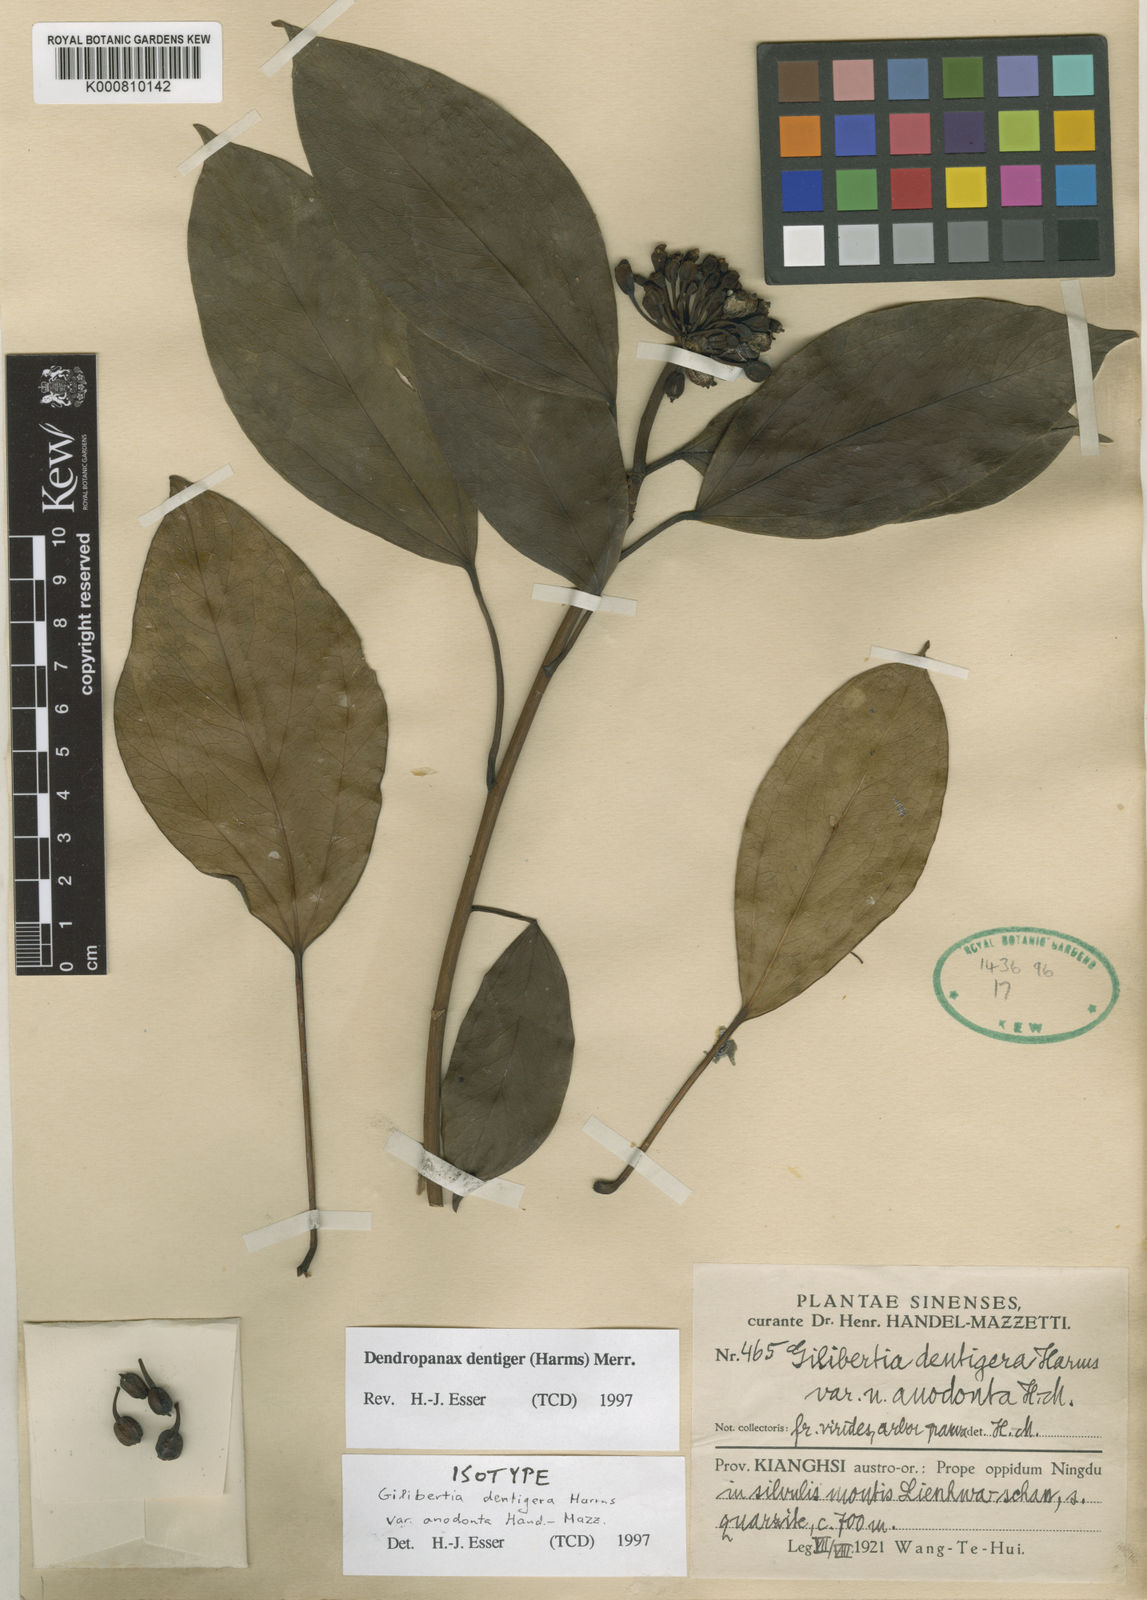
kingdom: Plantae
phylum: Tracheophyta
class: Magnoliopsida
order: Apiales
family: Araliaceae
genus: Dendropanax
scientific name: Dendropanax dentiger
